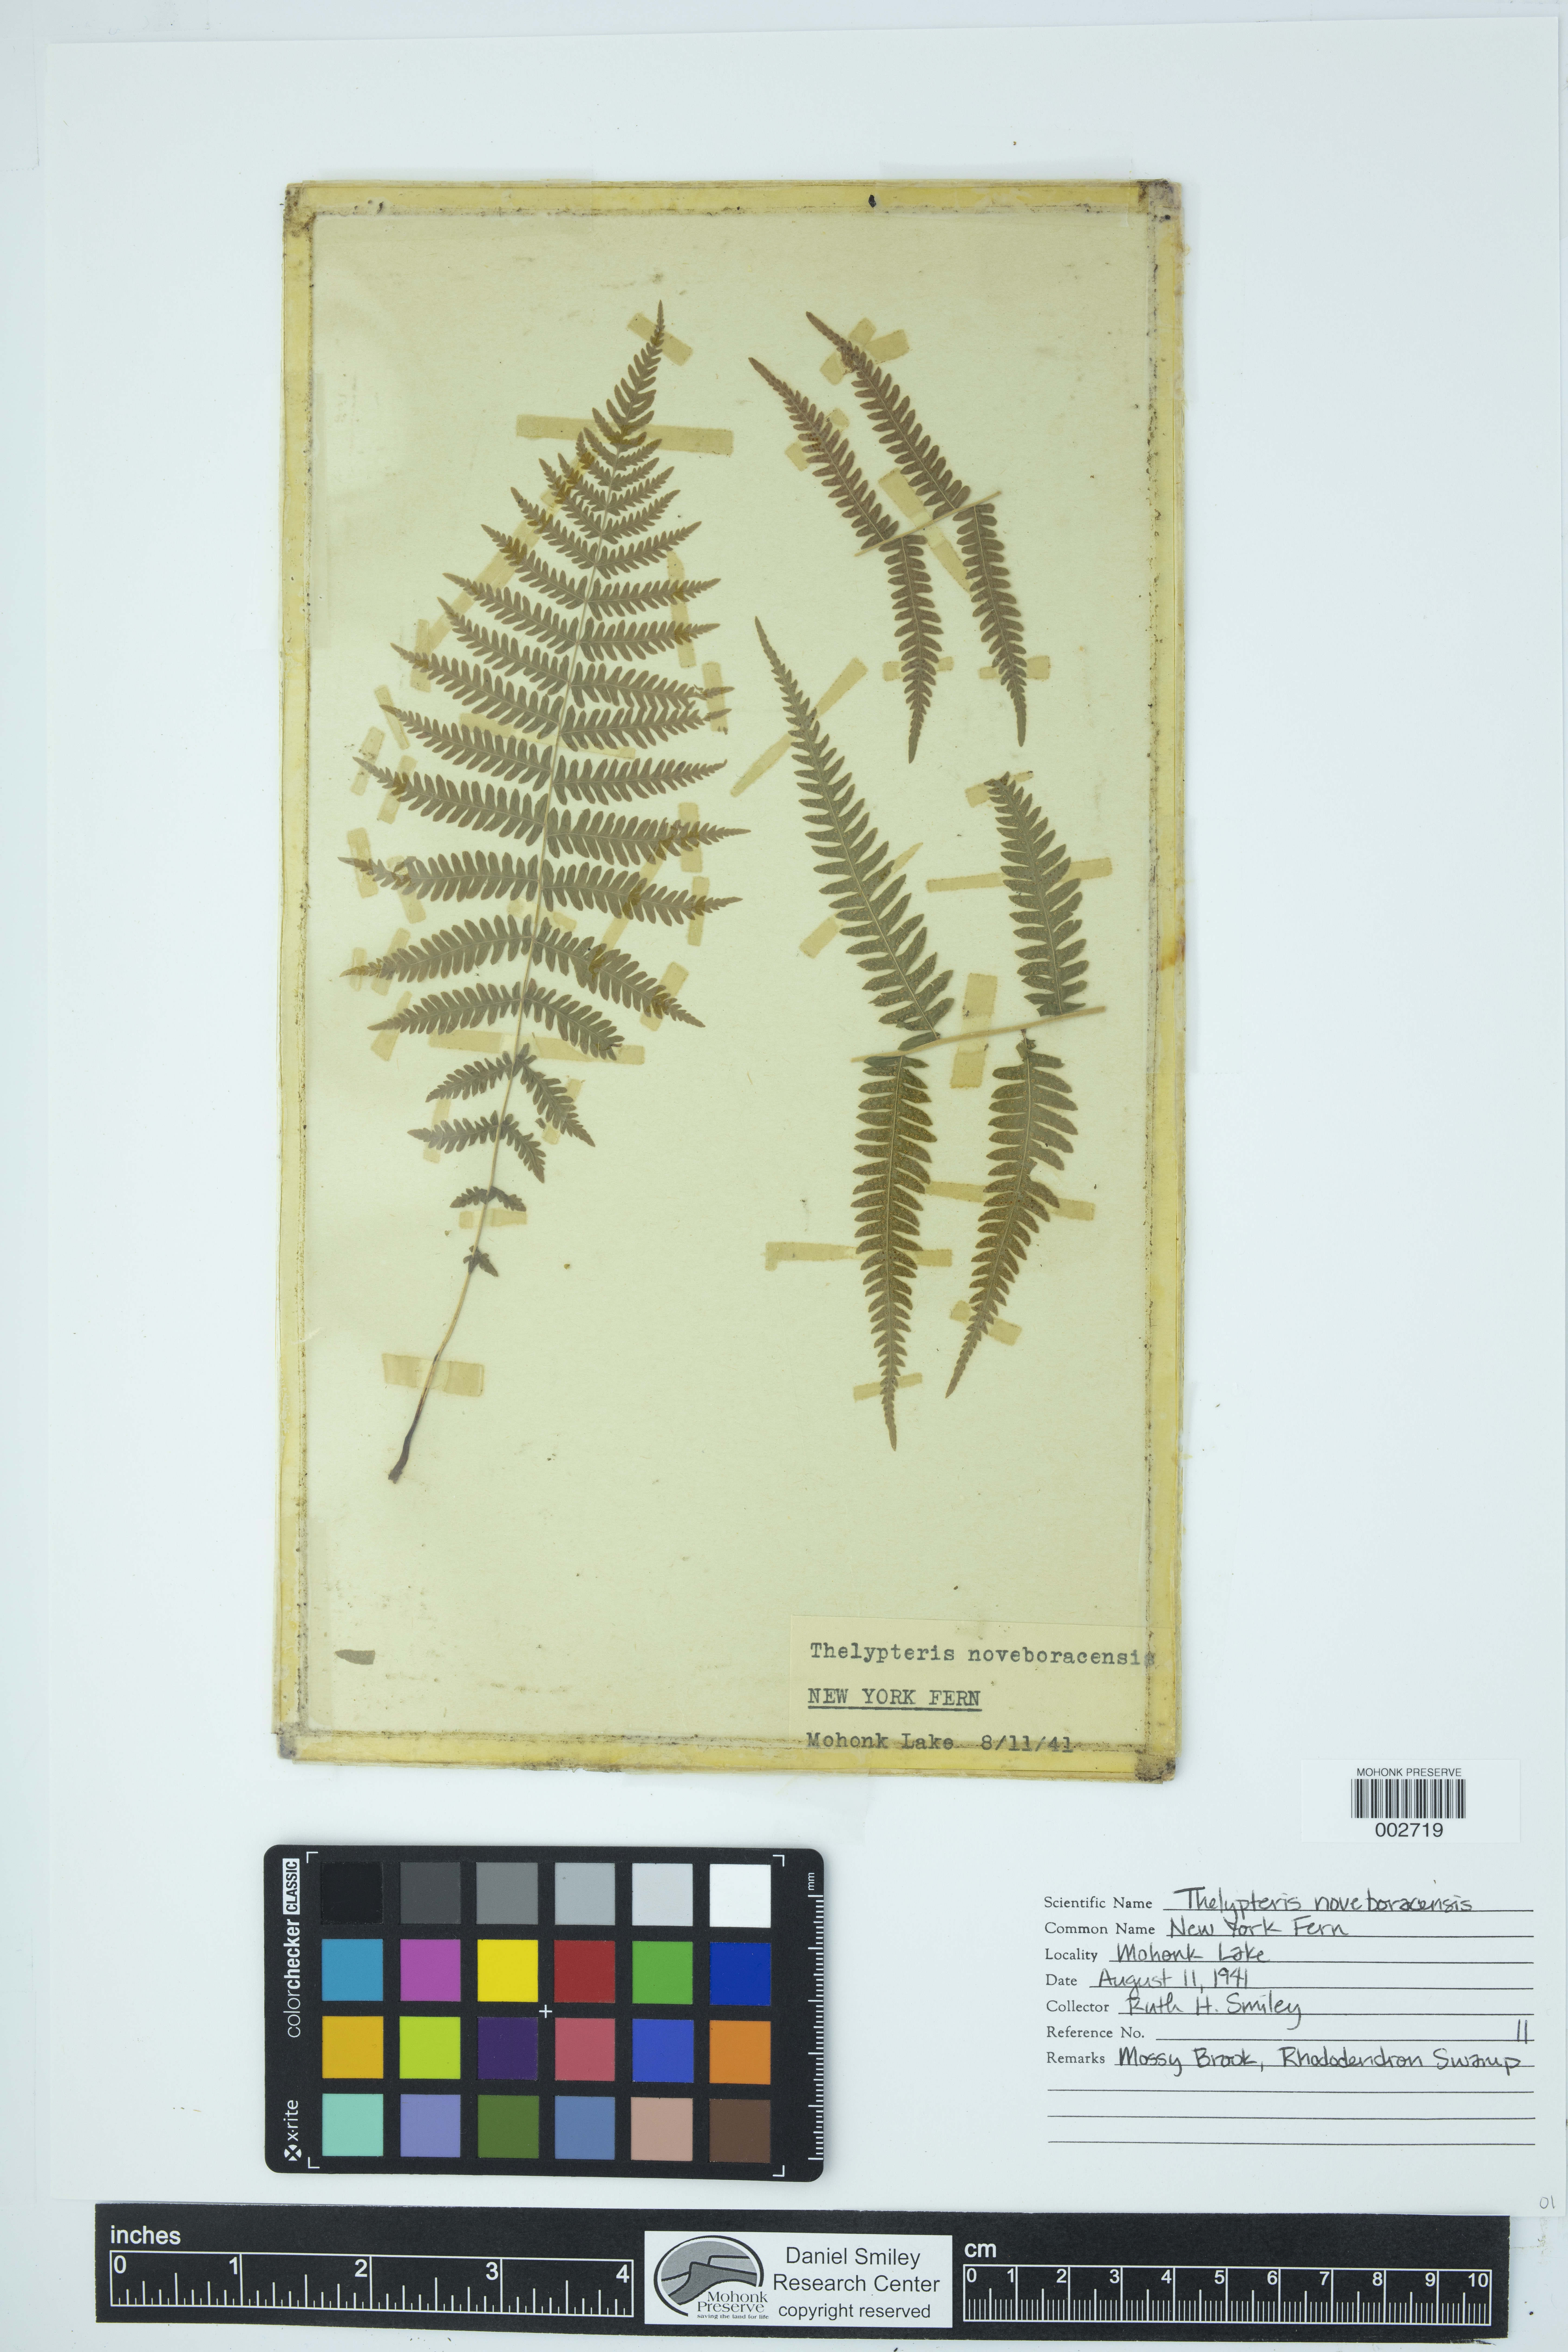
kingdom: Plantae
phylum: Tracheophyta
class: Polypodiopsida
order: Polypodiales
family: Thelypteridaceae
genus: Amauropelta
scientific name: Amauropelta noveboracensis
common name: New york fern
